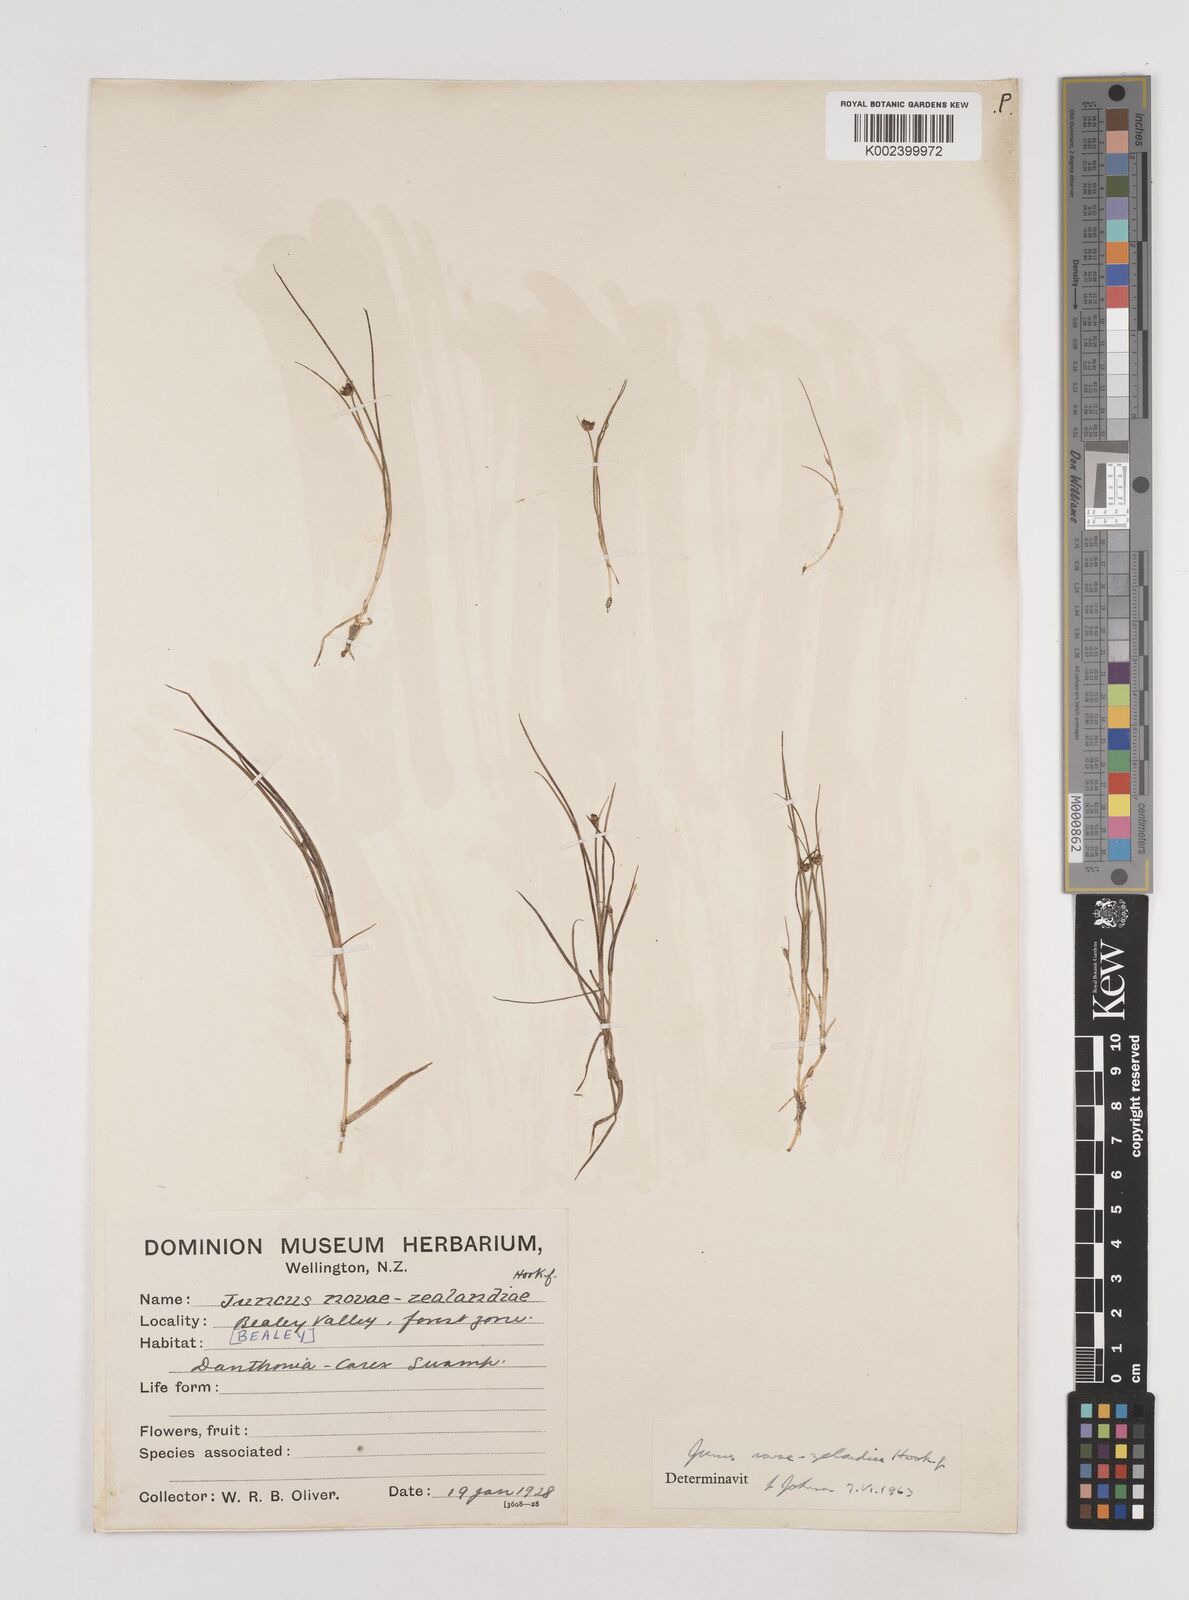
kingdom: Plantae
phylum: Tracheophyta
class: Liliopsida
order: Poales
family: Juncaceae
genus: Juncus
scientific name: Juncus novae-zelandiae
